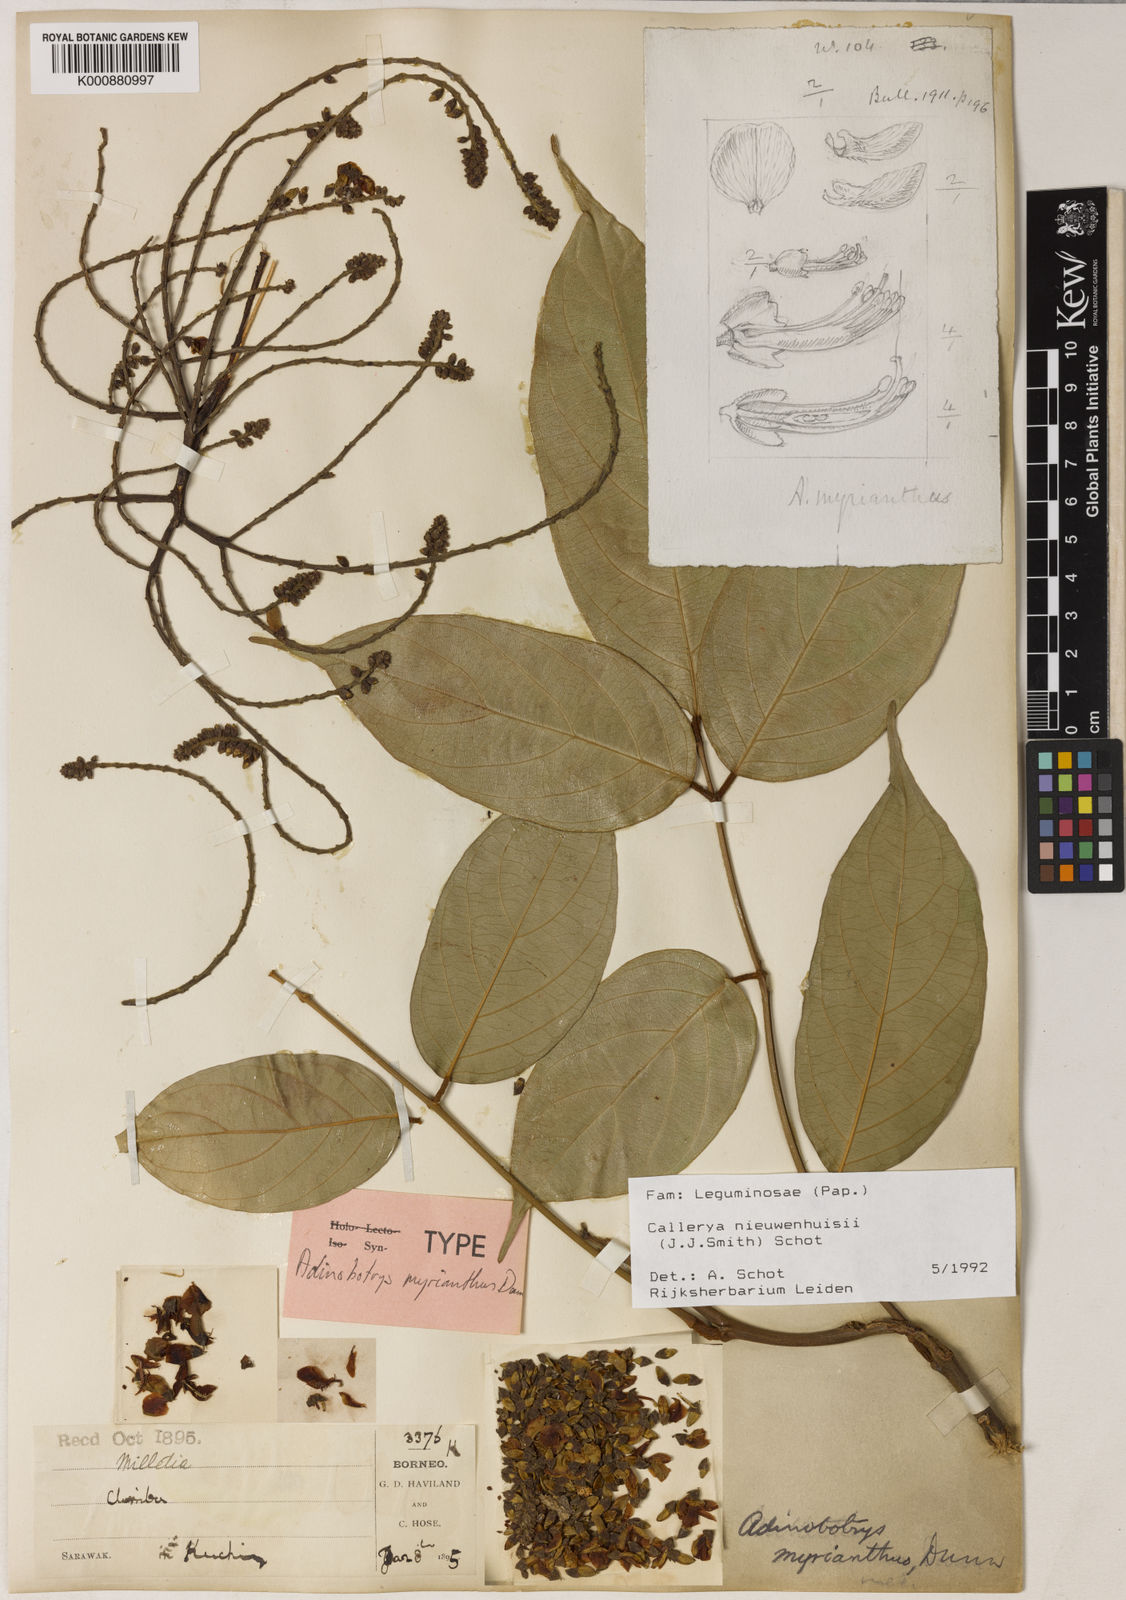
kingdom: Plantae
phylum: Tracheophyta
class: Magnoliopsida
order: Fabales
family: Fabaceae
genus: Whitfordiodendron
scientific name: Whitfordiodendron nieuwenhuisii
